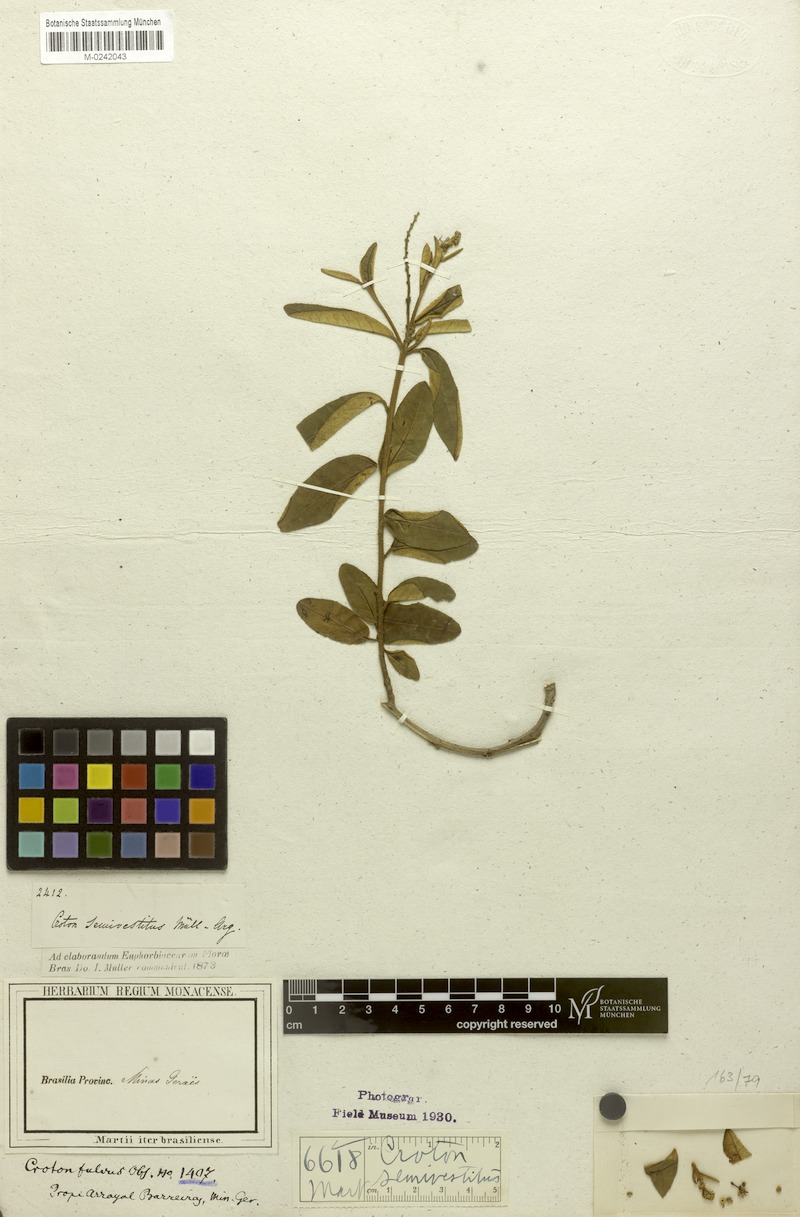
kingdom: Plantae
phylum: Tracheophyta
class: Magnoliopsida
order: Malpighiales
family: Euphorbiaceae
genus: Croton
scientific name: Croton semivestitus
